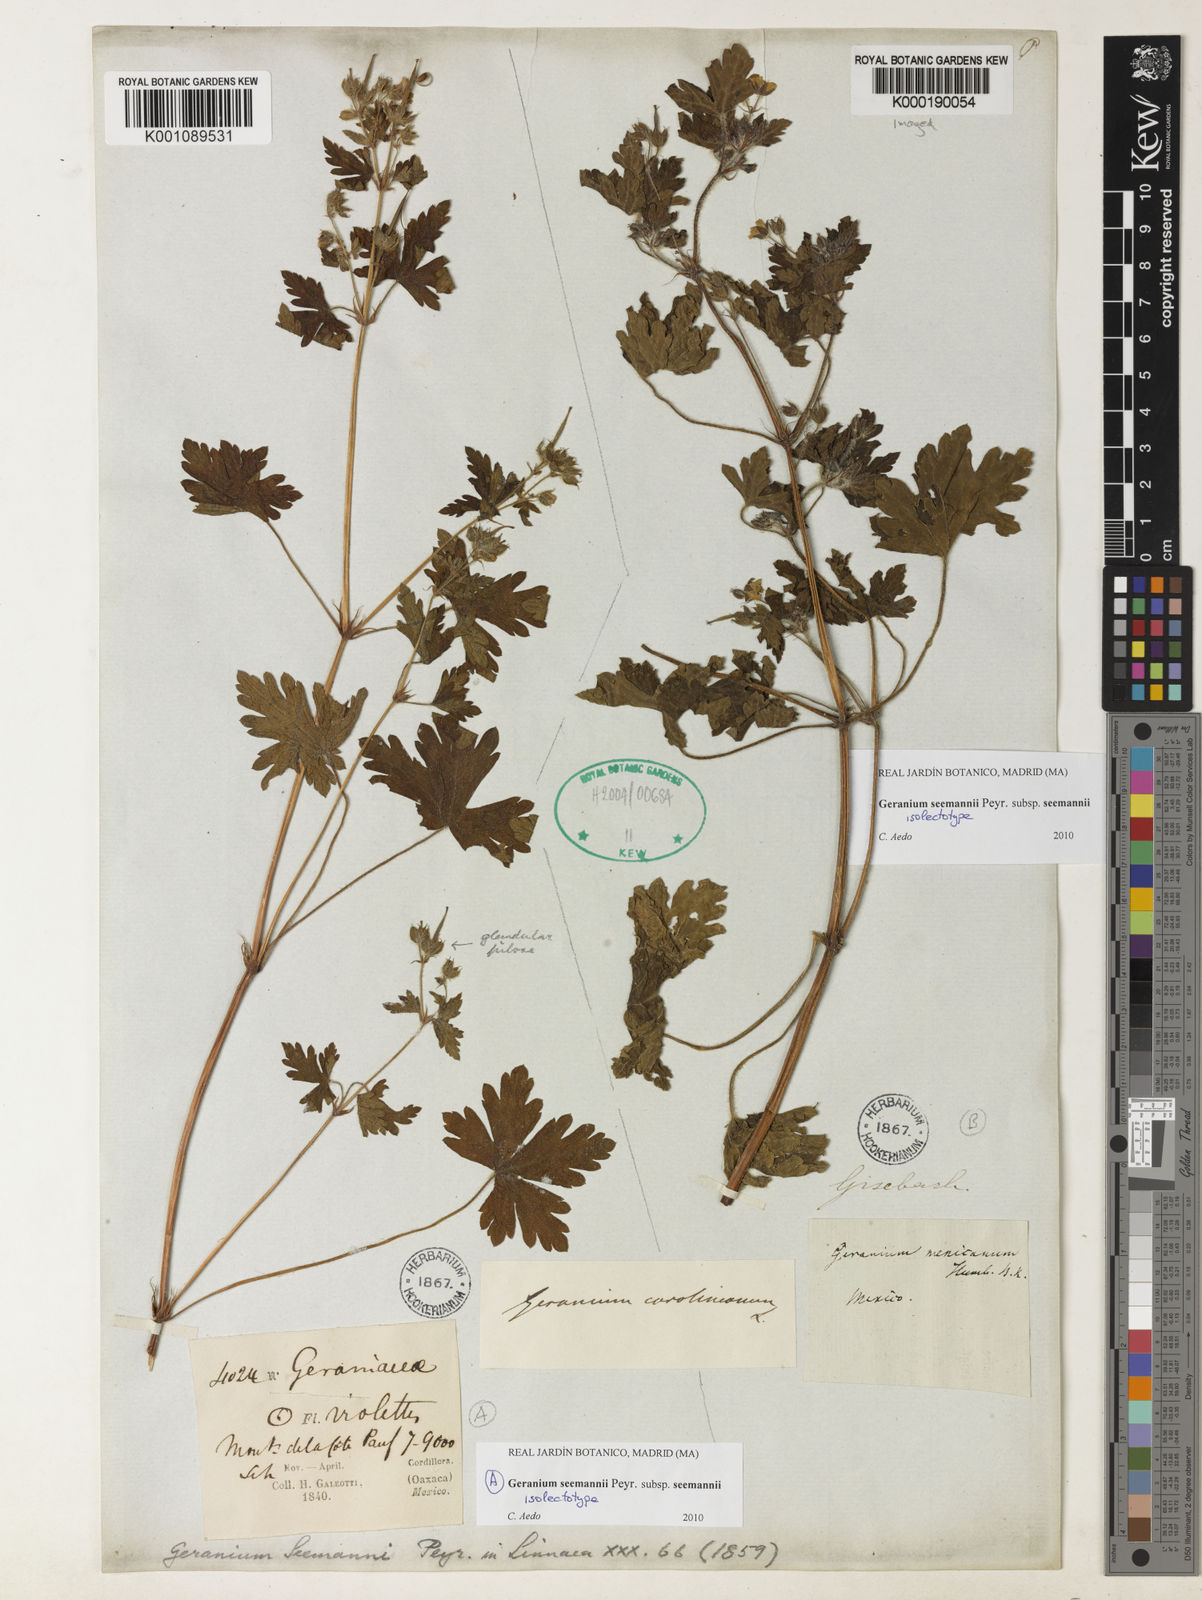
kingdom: Plantae
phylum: Tracheophyta
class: Magnoliopsida
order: Geraniales
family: Geraniaceae
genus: Geranium
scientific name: Geranium seemannii
